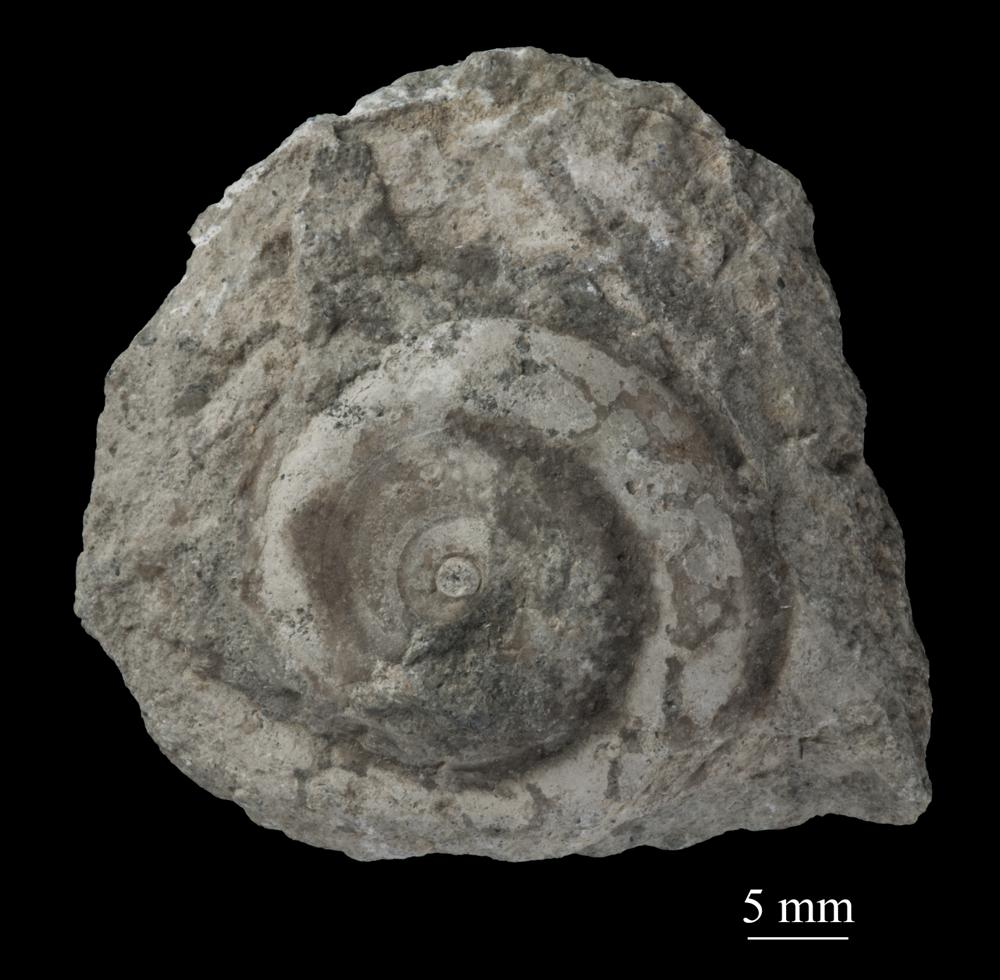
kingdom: Animalia
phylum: Mollusca
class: Gastropoda
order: Pleurotomariida
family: Planitrochidae
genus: Trochomphalus
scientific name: Trochomphalus Pycnomphalus borkholmiensis
